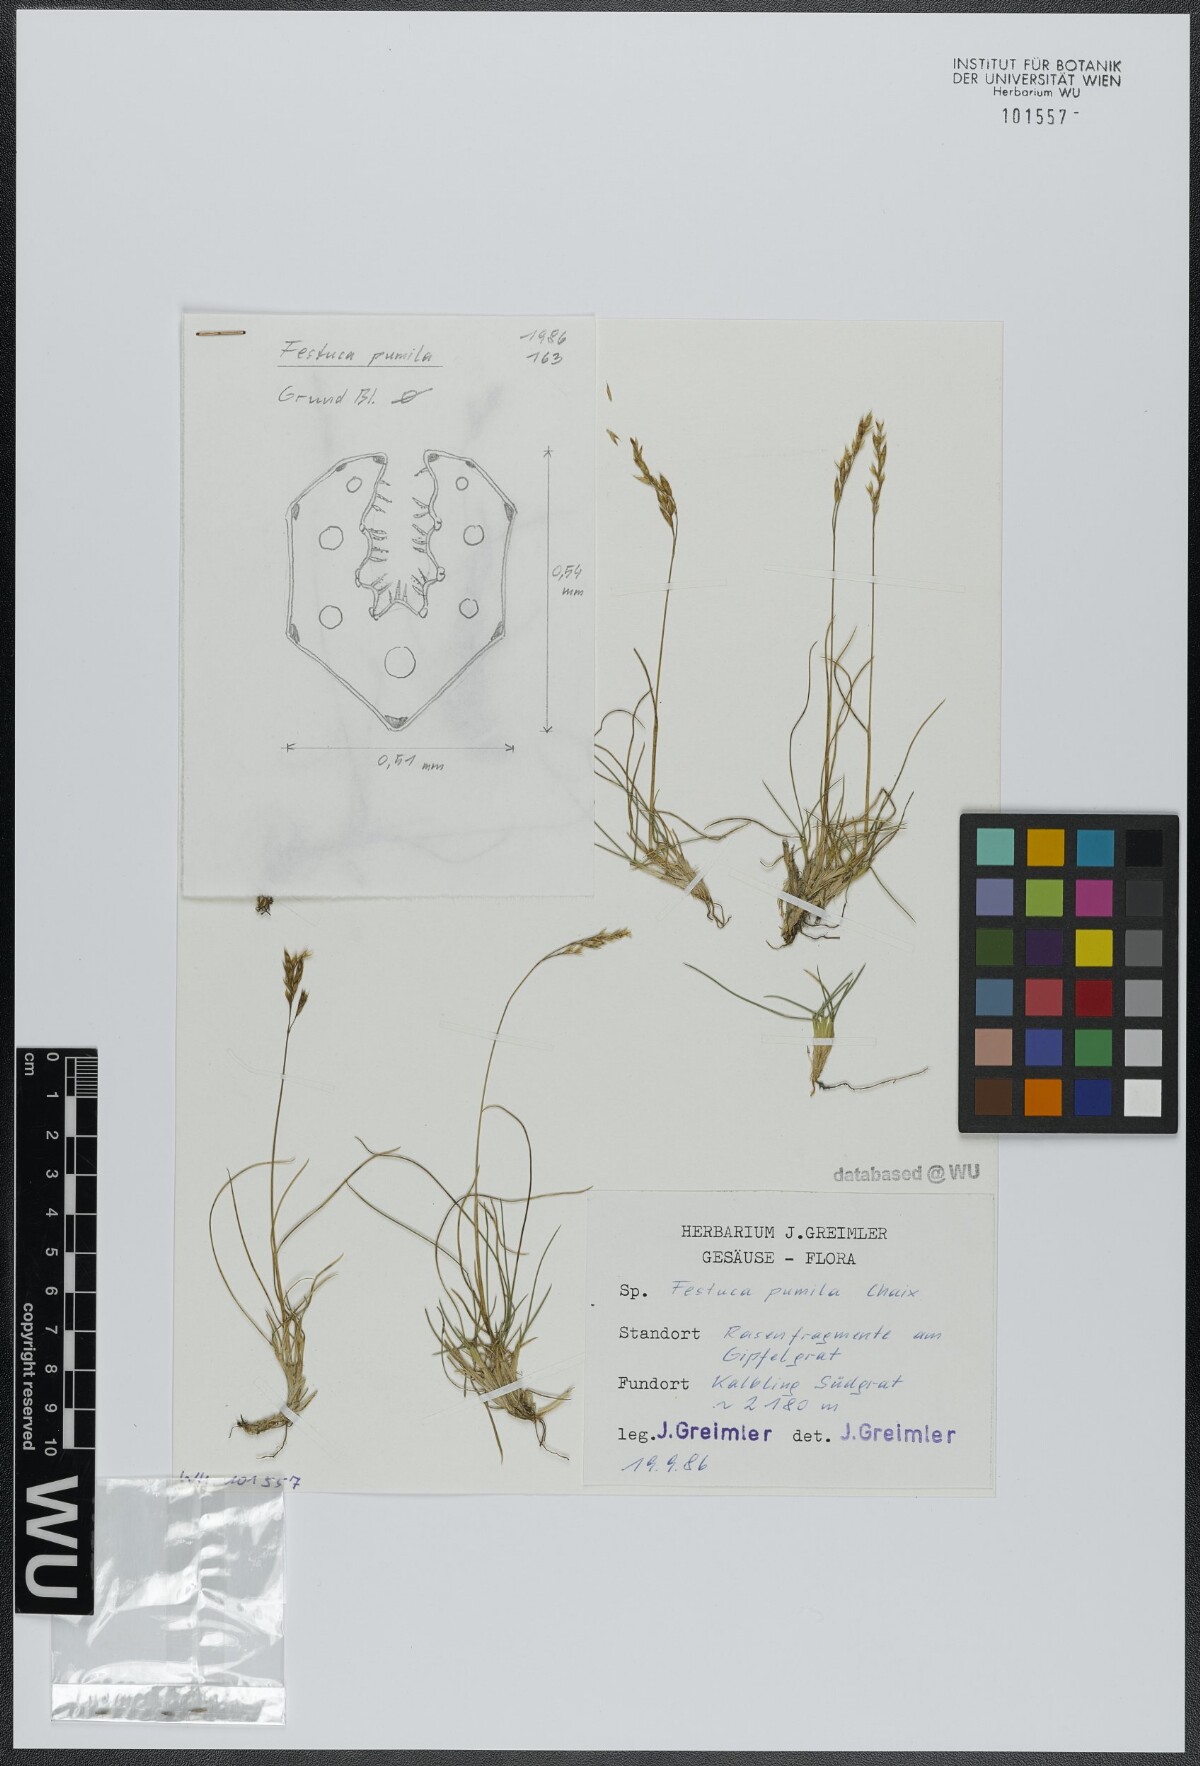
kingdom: Plantae
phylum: Tracheophyta
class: Liliopsida
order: Poales
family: Poaceae
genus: Festuca
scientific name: Festuca quadriflora
